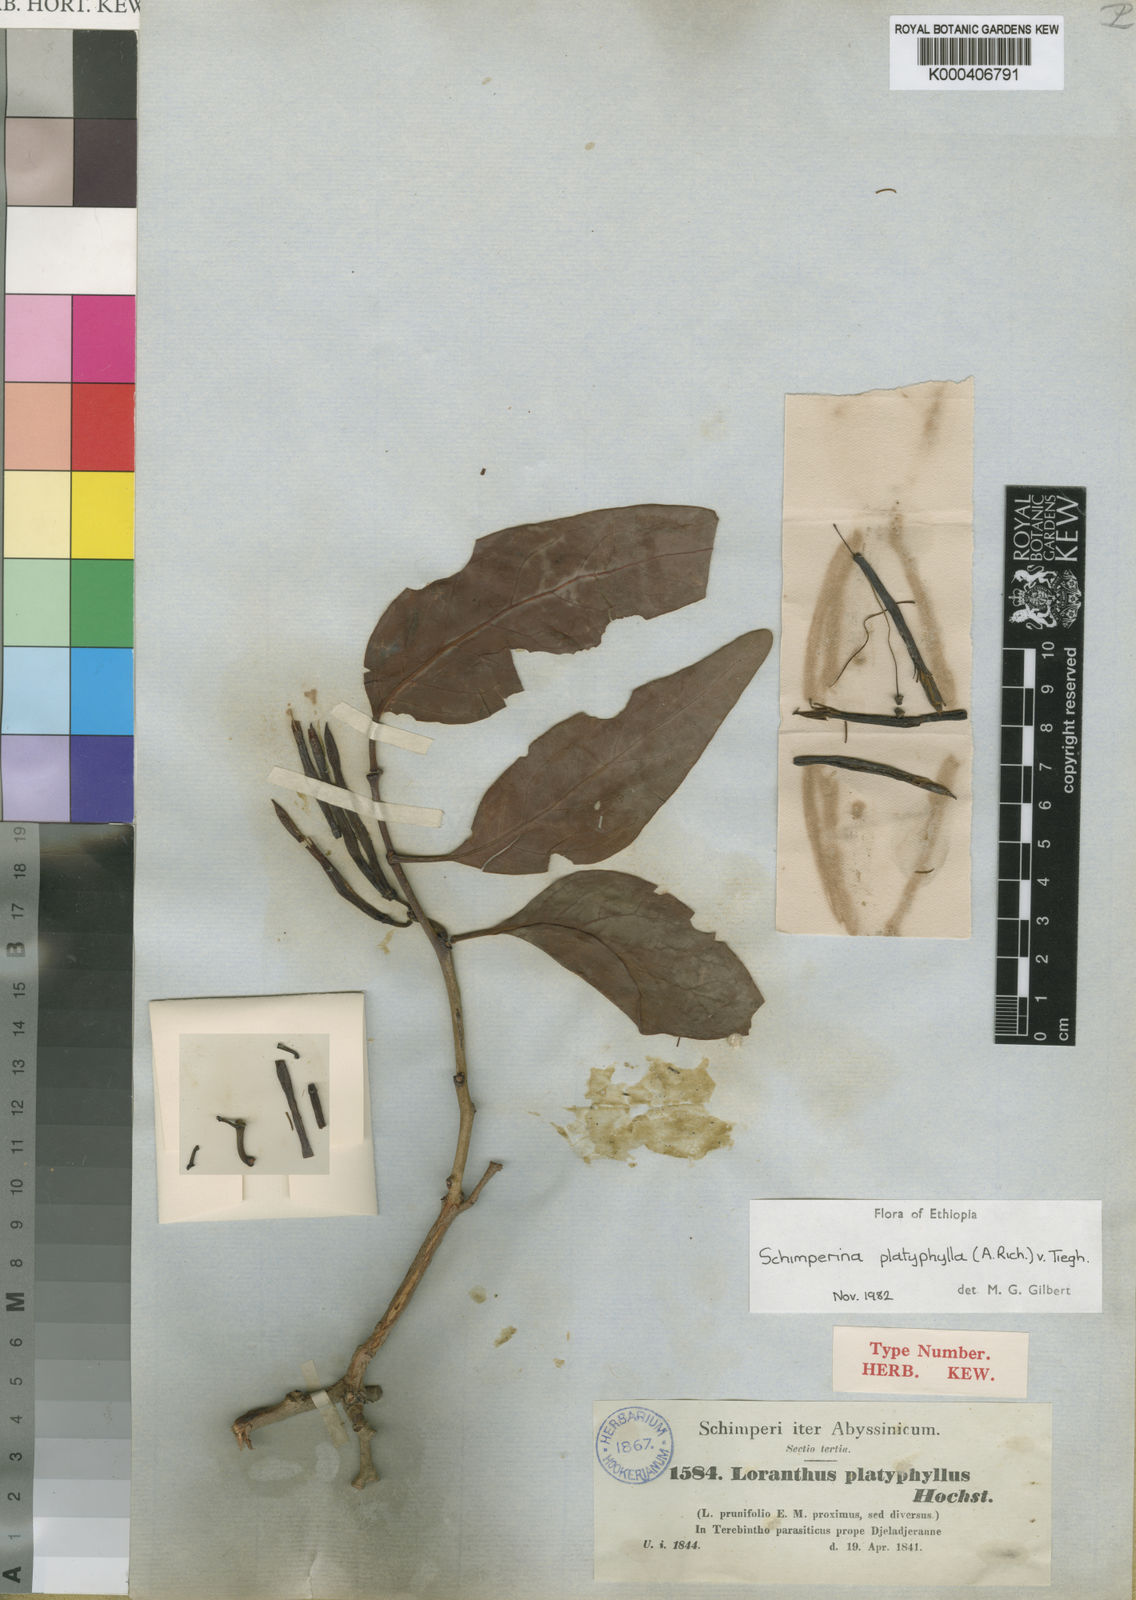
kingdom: Plantae
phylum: Tracheophyta
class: Magnoliopsida
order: Santalales
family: Loranthaceae
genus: Agelanthus
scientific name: Agelanthus platyphyllus
